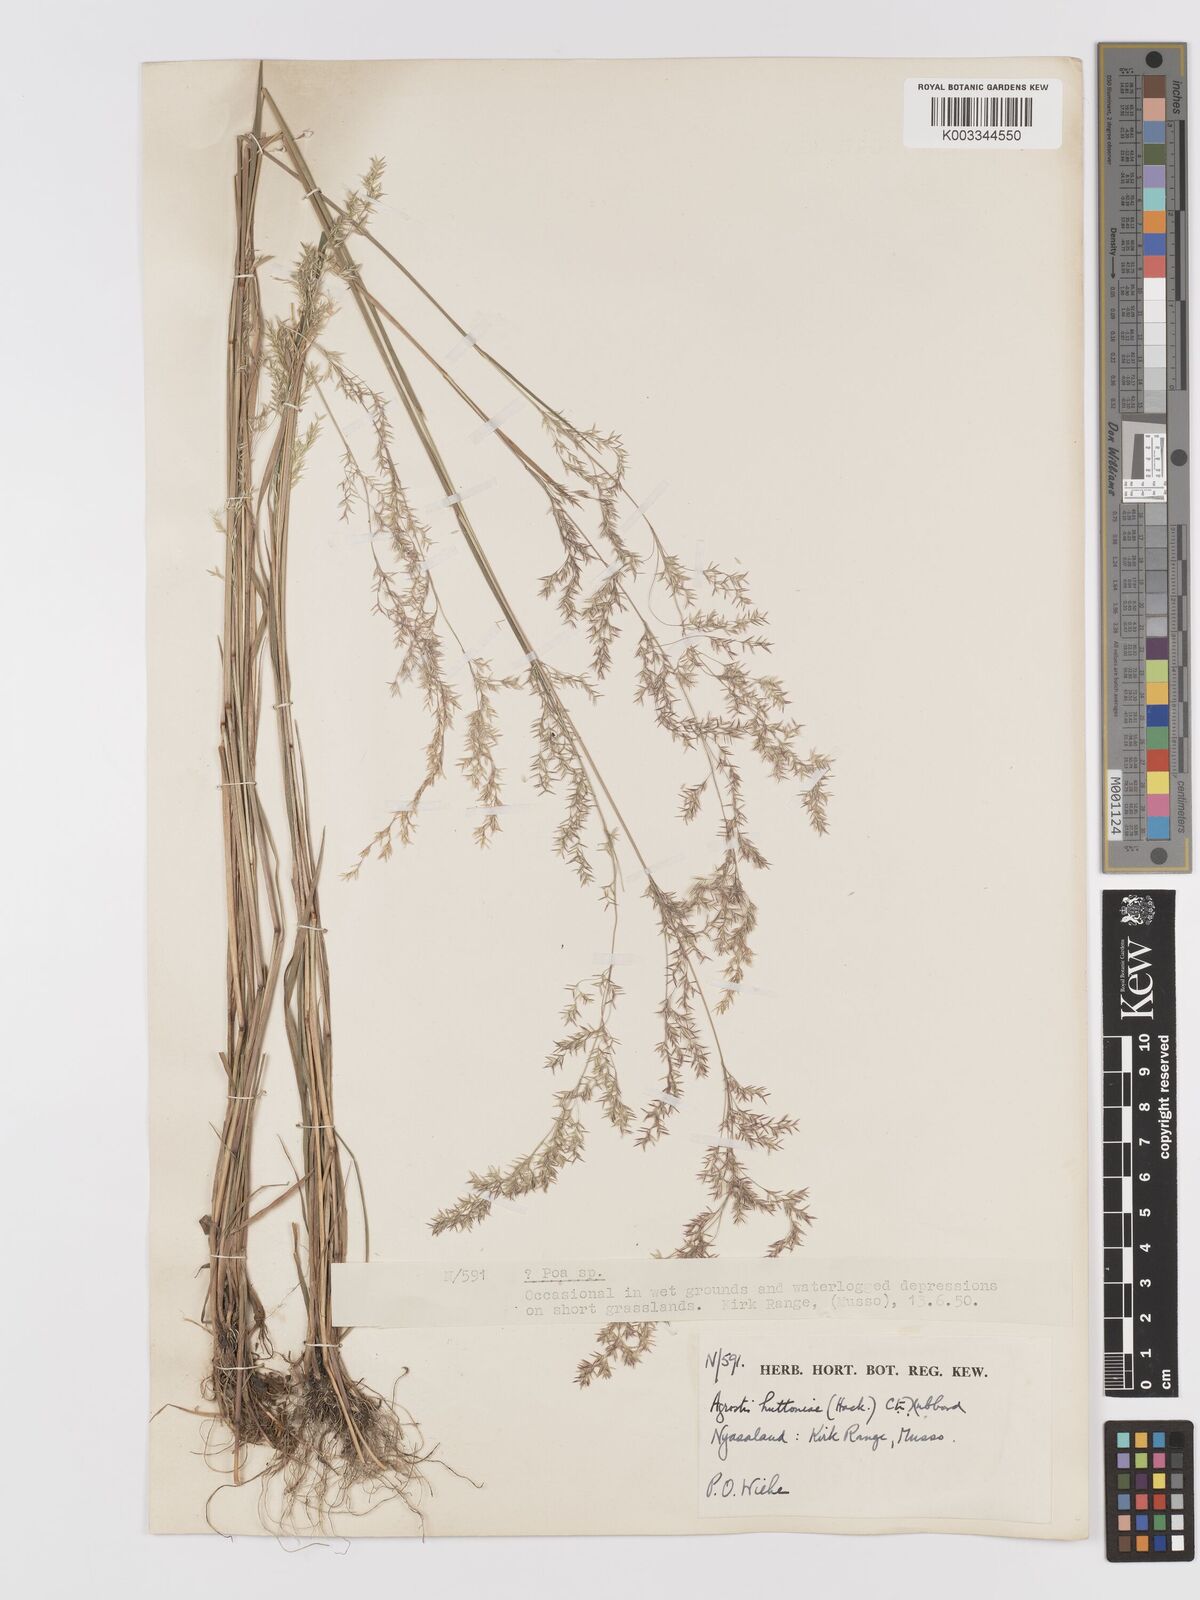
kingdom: Plantae
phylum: Tracheophyta
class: Liliopsida
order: Poales
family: Poaceae
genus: Lachnagrostis
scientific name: Lachnagrostis lachnantha
